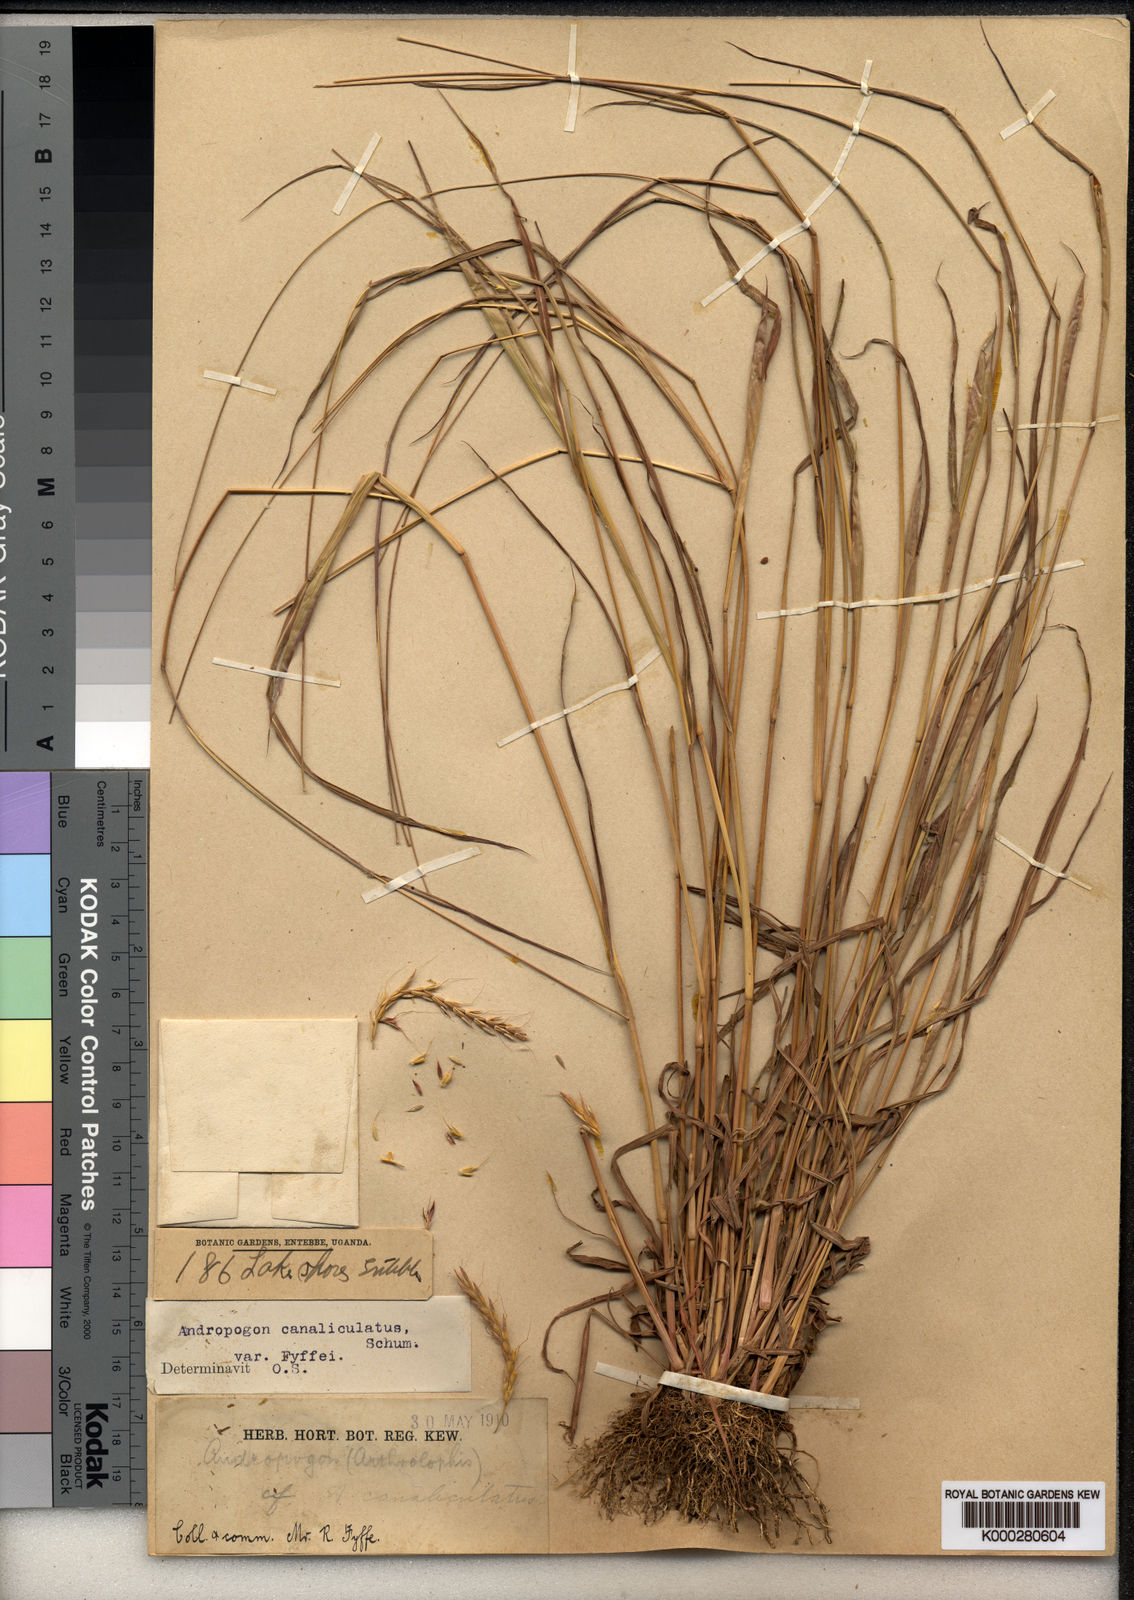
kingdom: Plantae
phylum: Tracheophyta
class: Liliopsida
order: Poales
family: Poaceae
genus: Andropogon
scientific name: Andropogon canaliculatus
